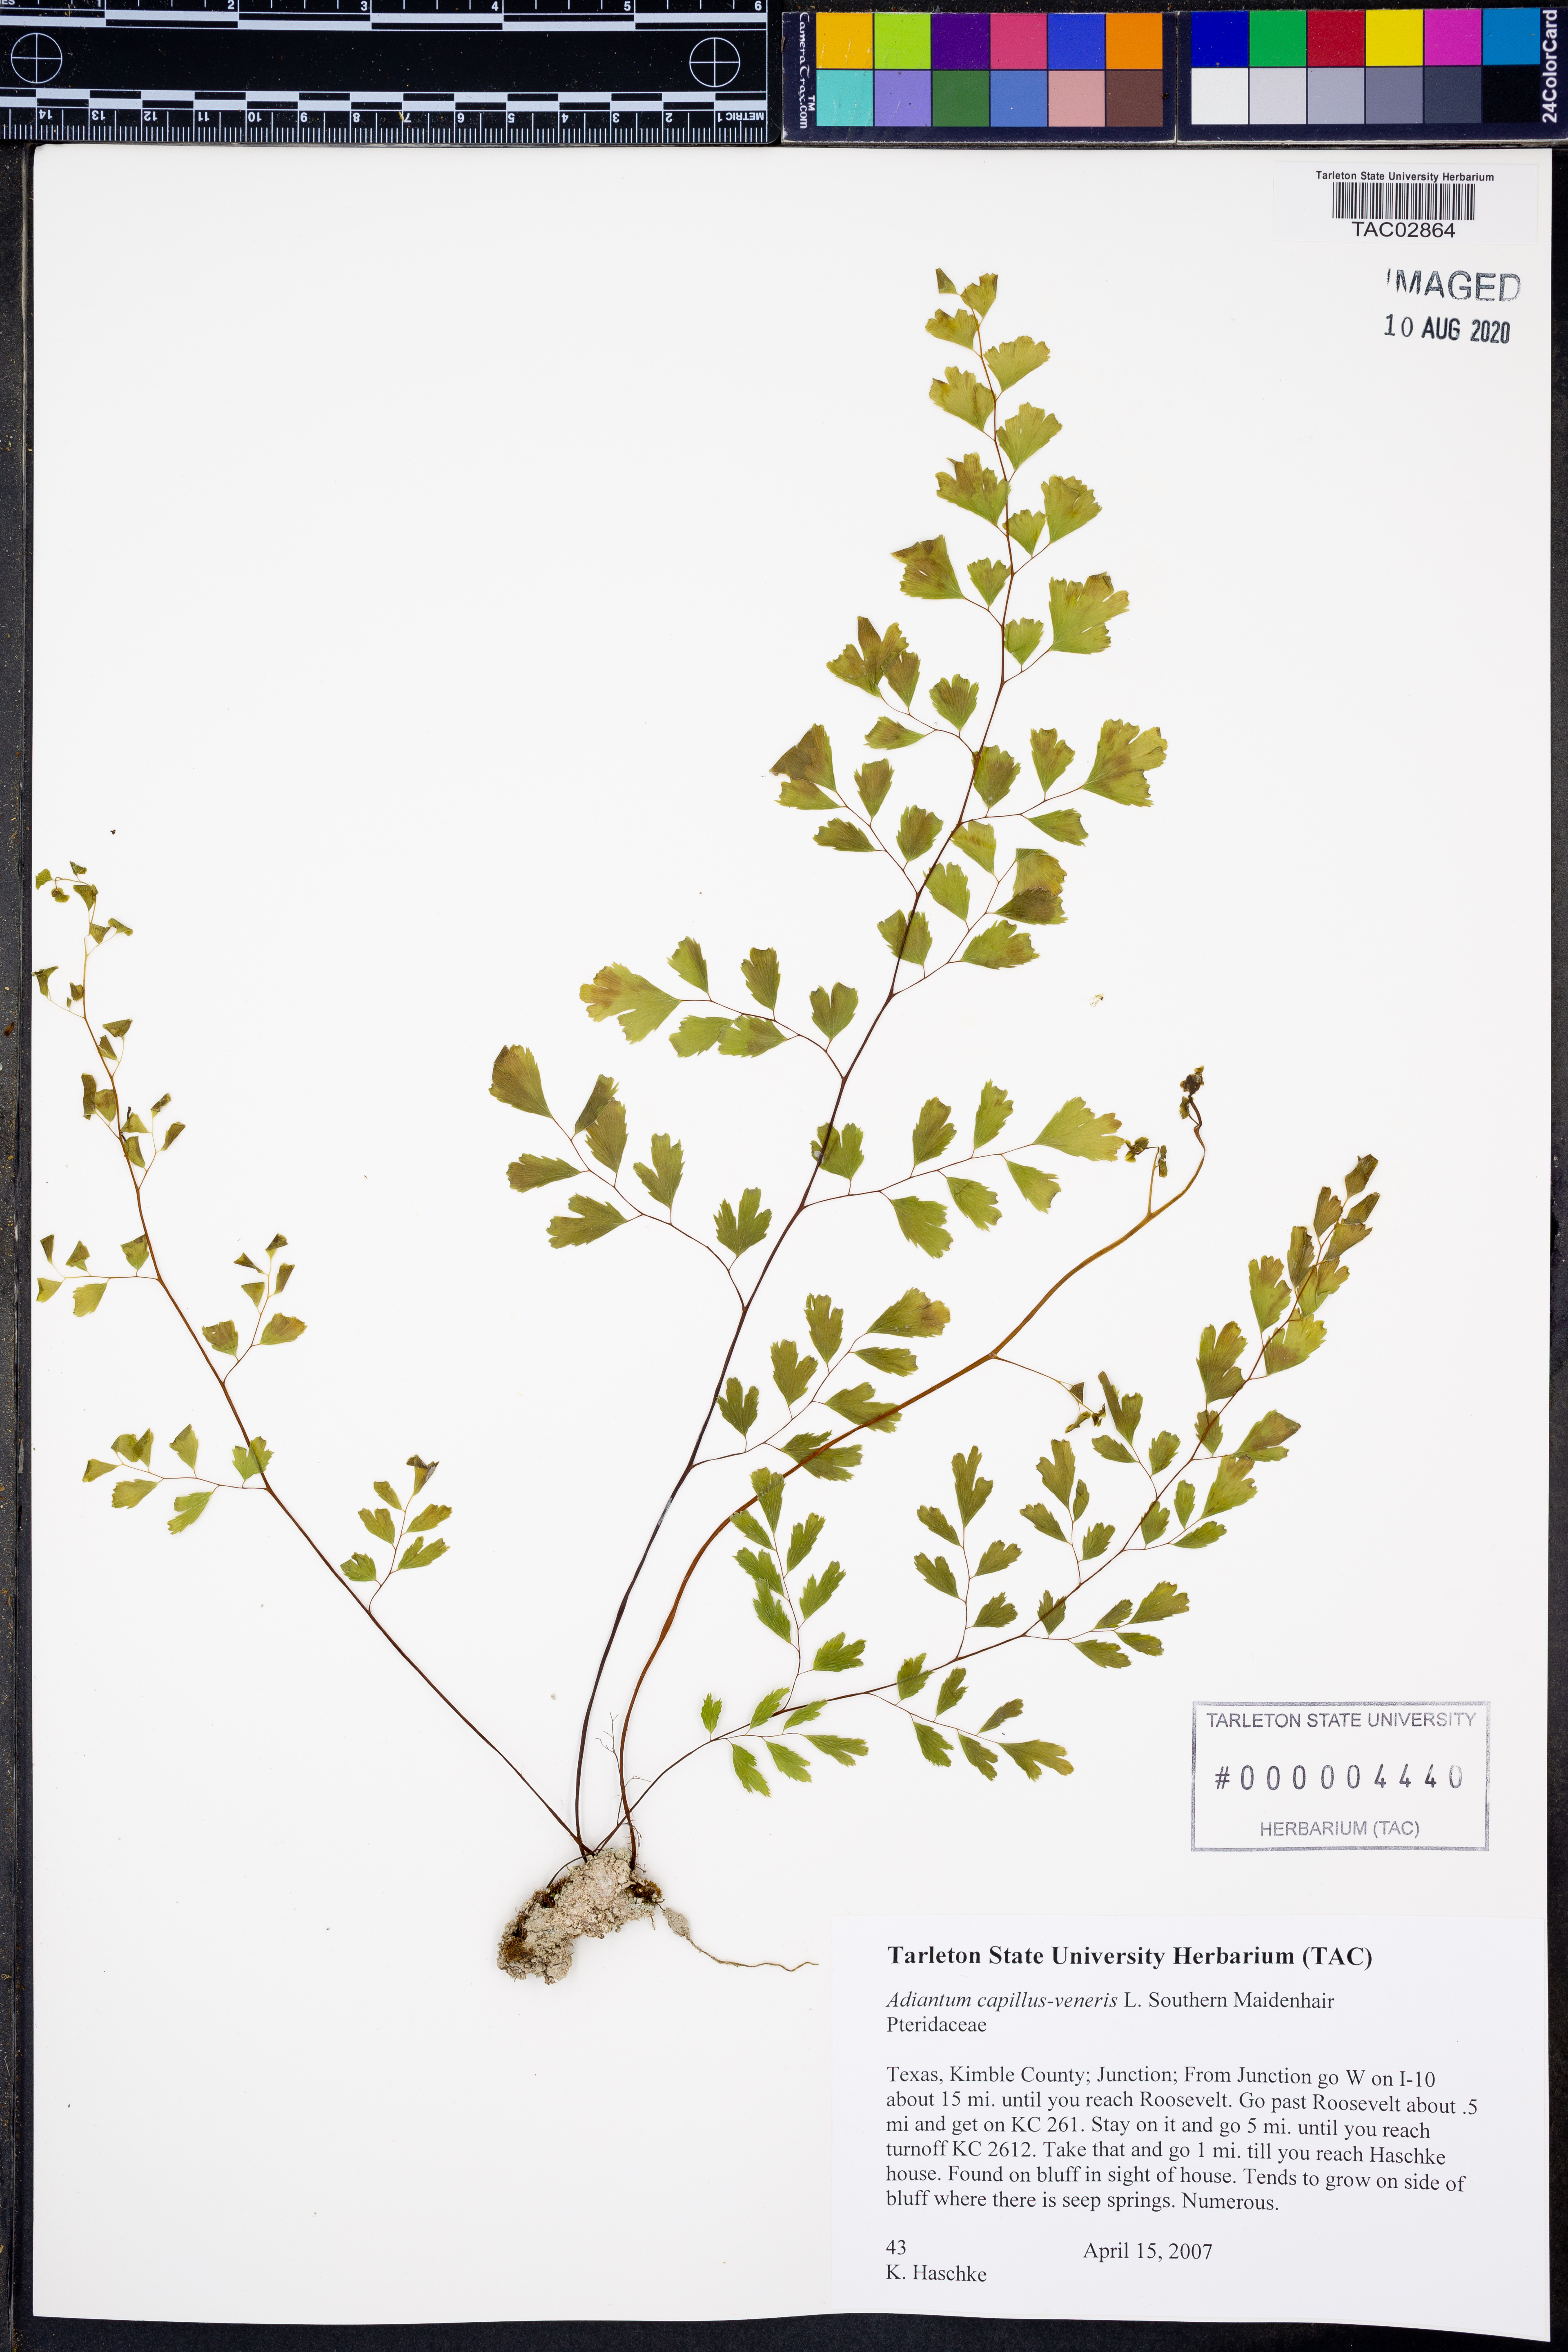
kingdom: Plantae
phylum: Tracheophyta
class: Polypodiopsida
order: Polypodiales
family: Pteridaceae
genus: Adiantum
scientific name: Adiantum capillus-veneris
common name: Maidenhair fern
